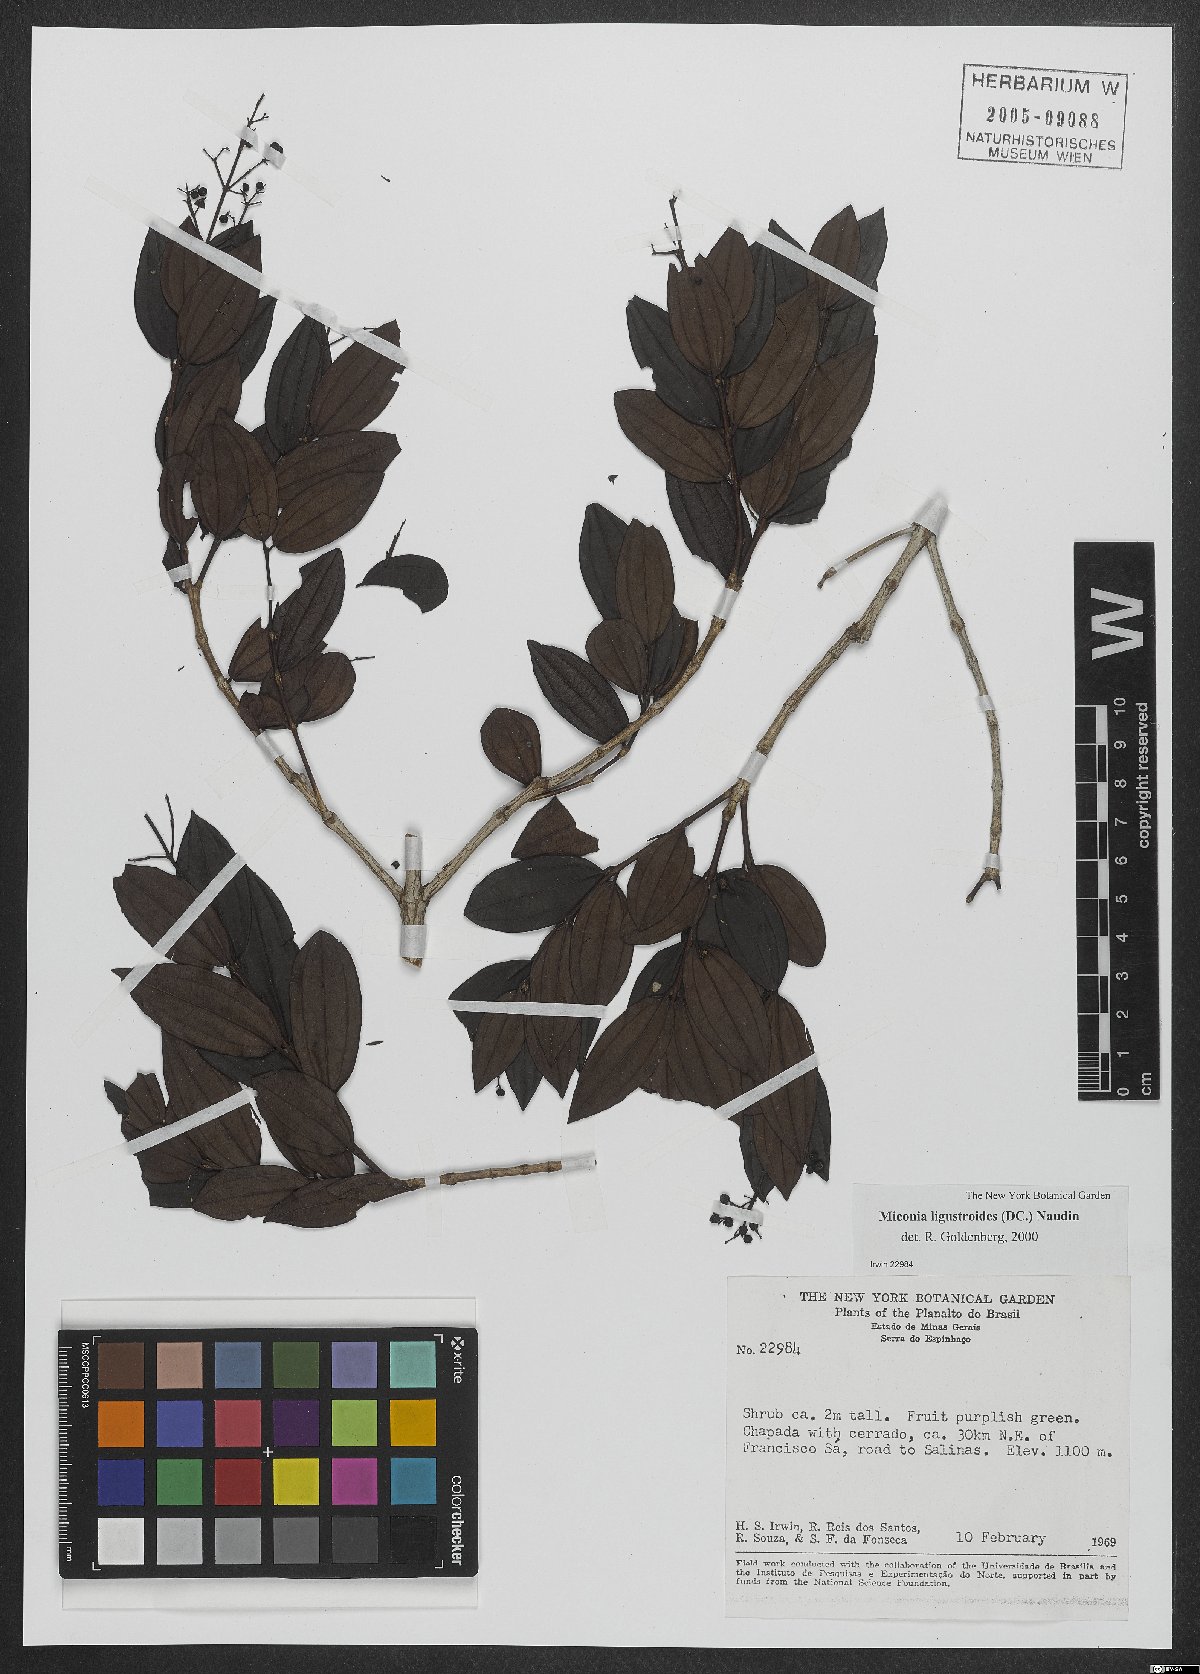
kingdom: Plantae
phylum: Tracheophyta
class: Magnoliopsida
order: Myrtales
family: Melastomataceae
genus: Miconia
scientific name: Miconia ligustroides
